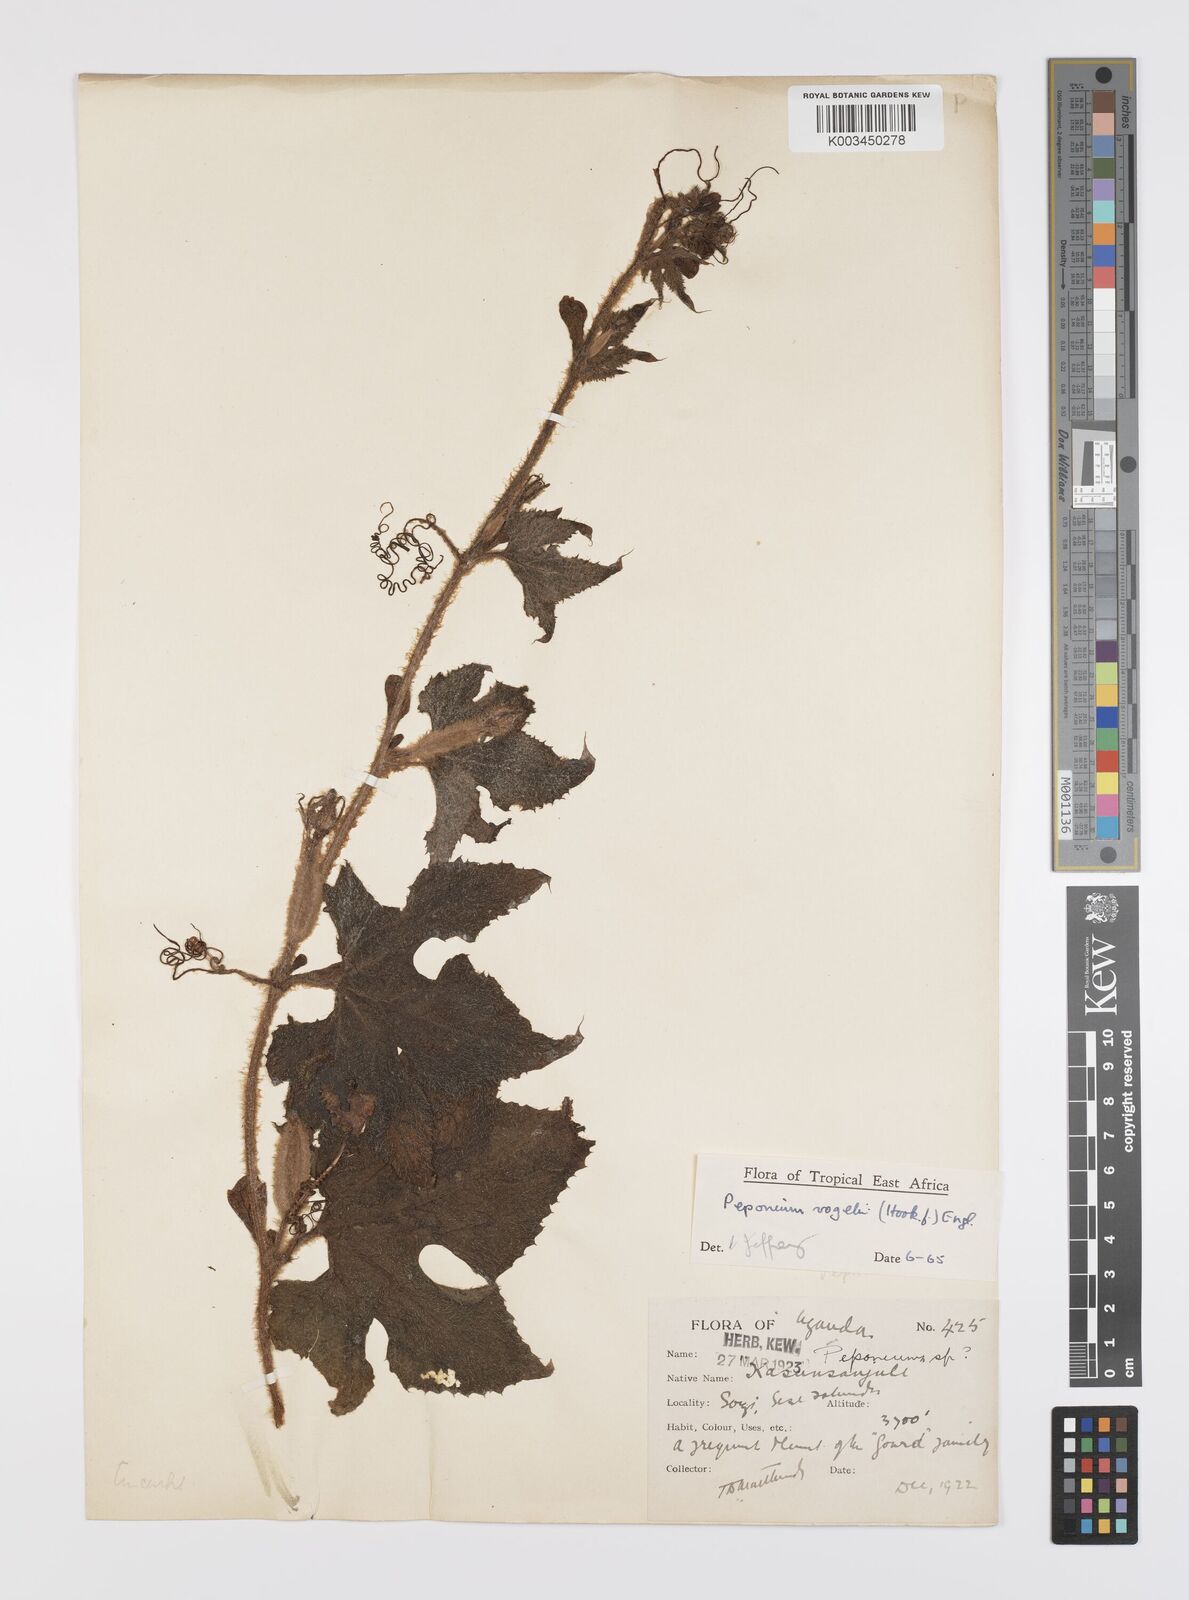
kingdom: Plantae
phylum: Tracheophyta
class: Magnoliopsida
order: Cucurbitales
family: Cucurbitaceae
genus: Peponium
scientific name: Peponium vogelii
